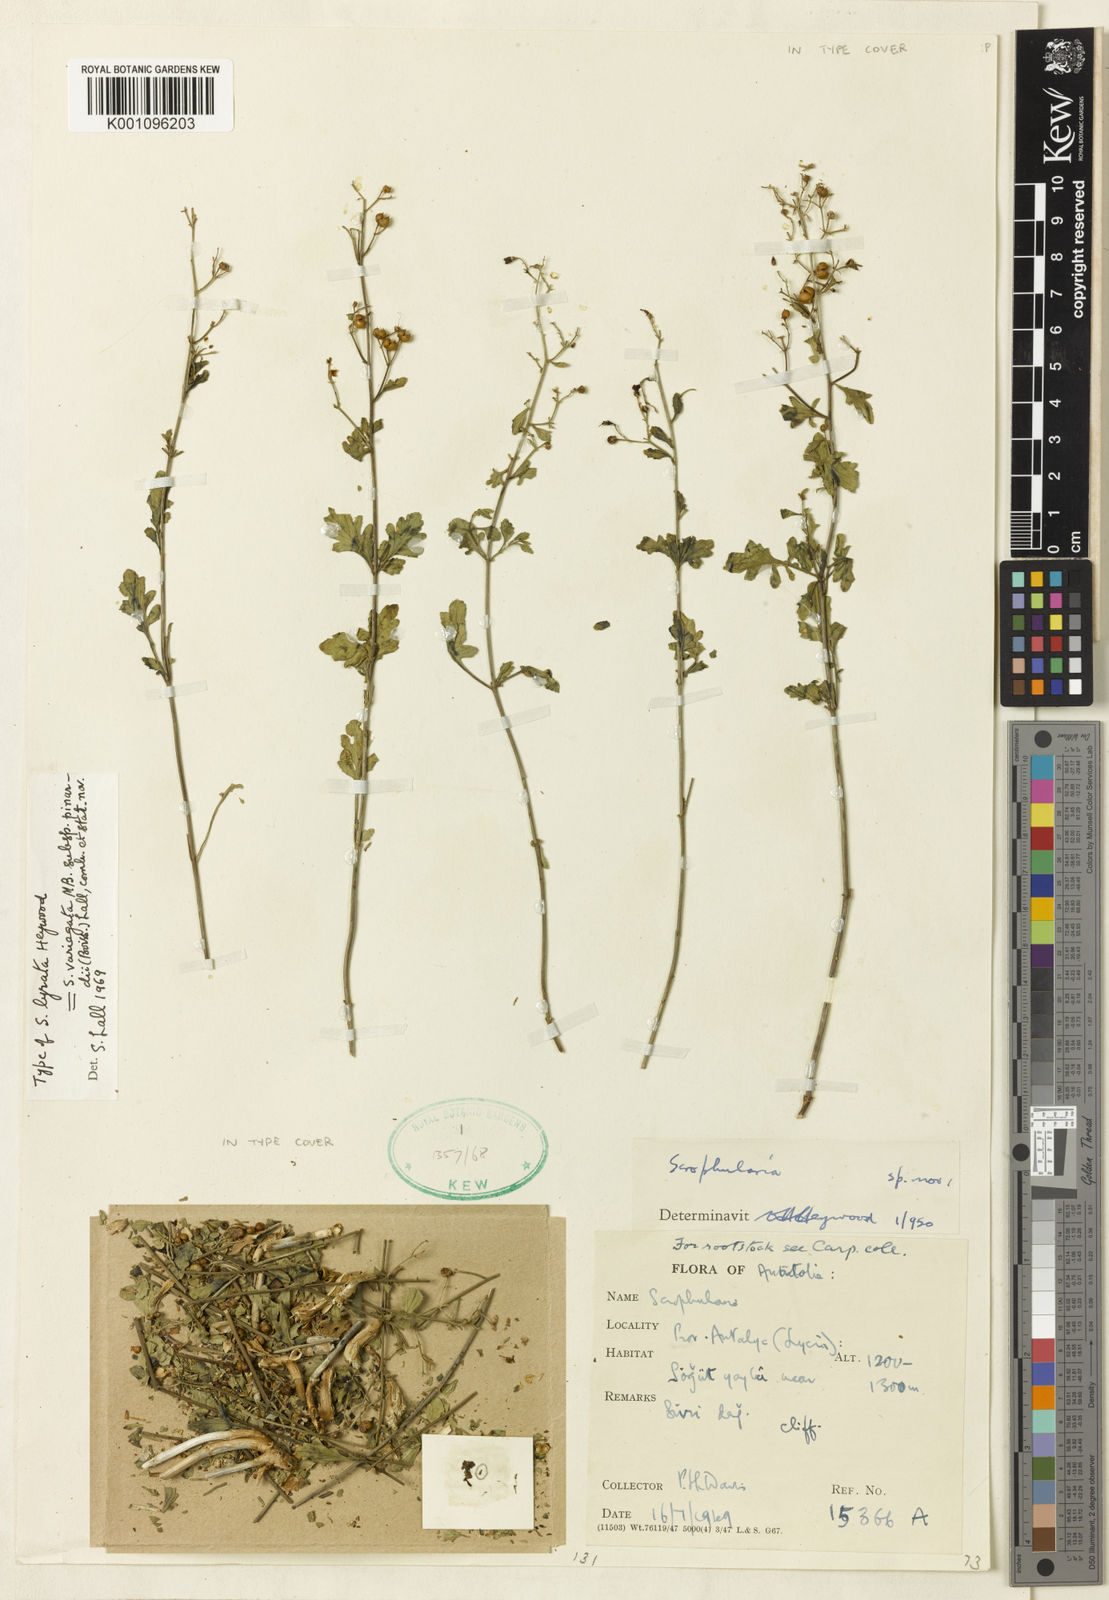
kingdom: Plantae
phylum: Tracheophyta
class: Magnoliopsida
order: Lamiales
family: Scrophulariaceae
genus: Scrophularia
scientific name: Scrophularia pinardii
